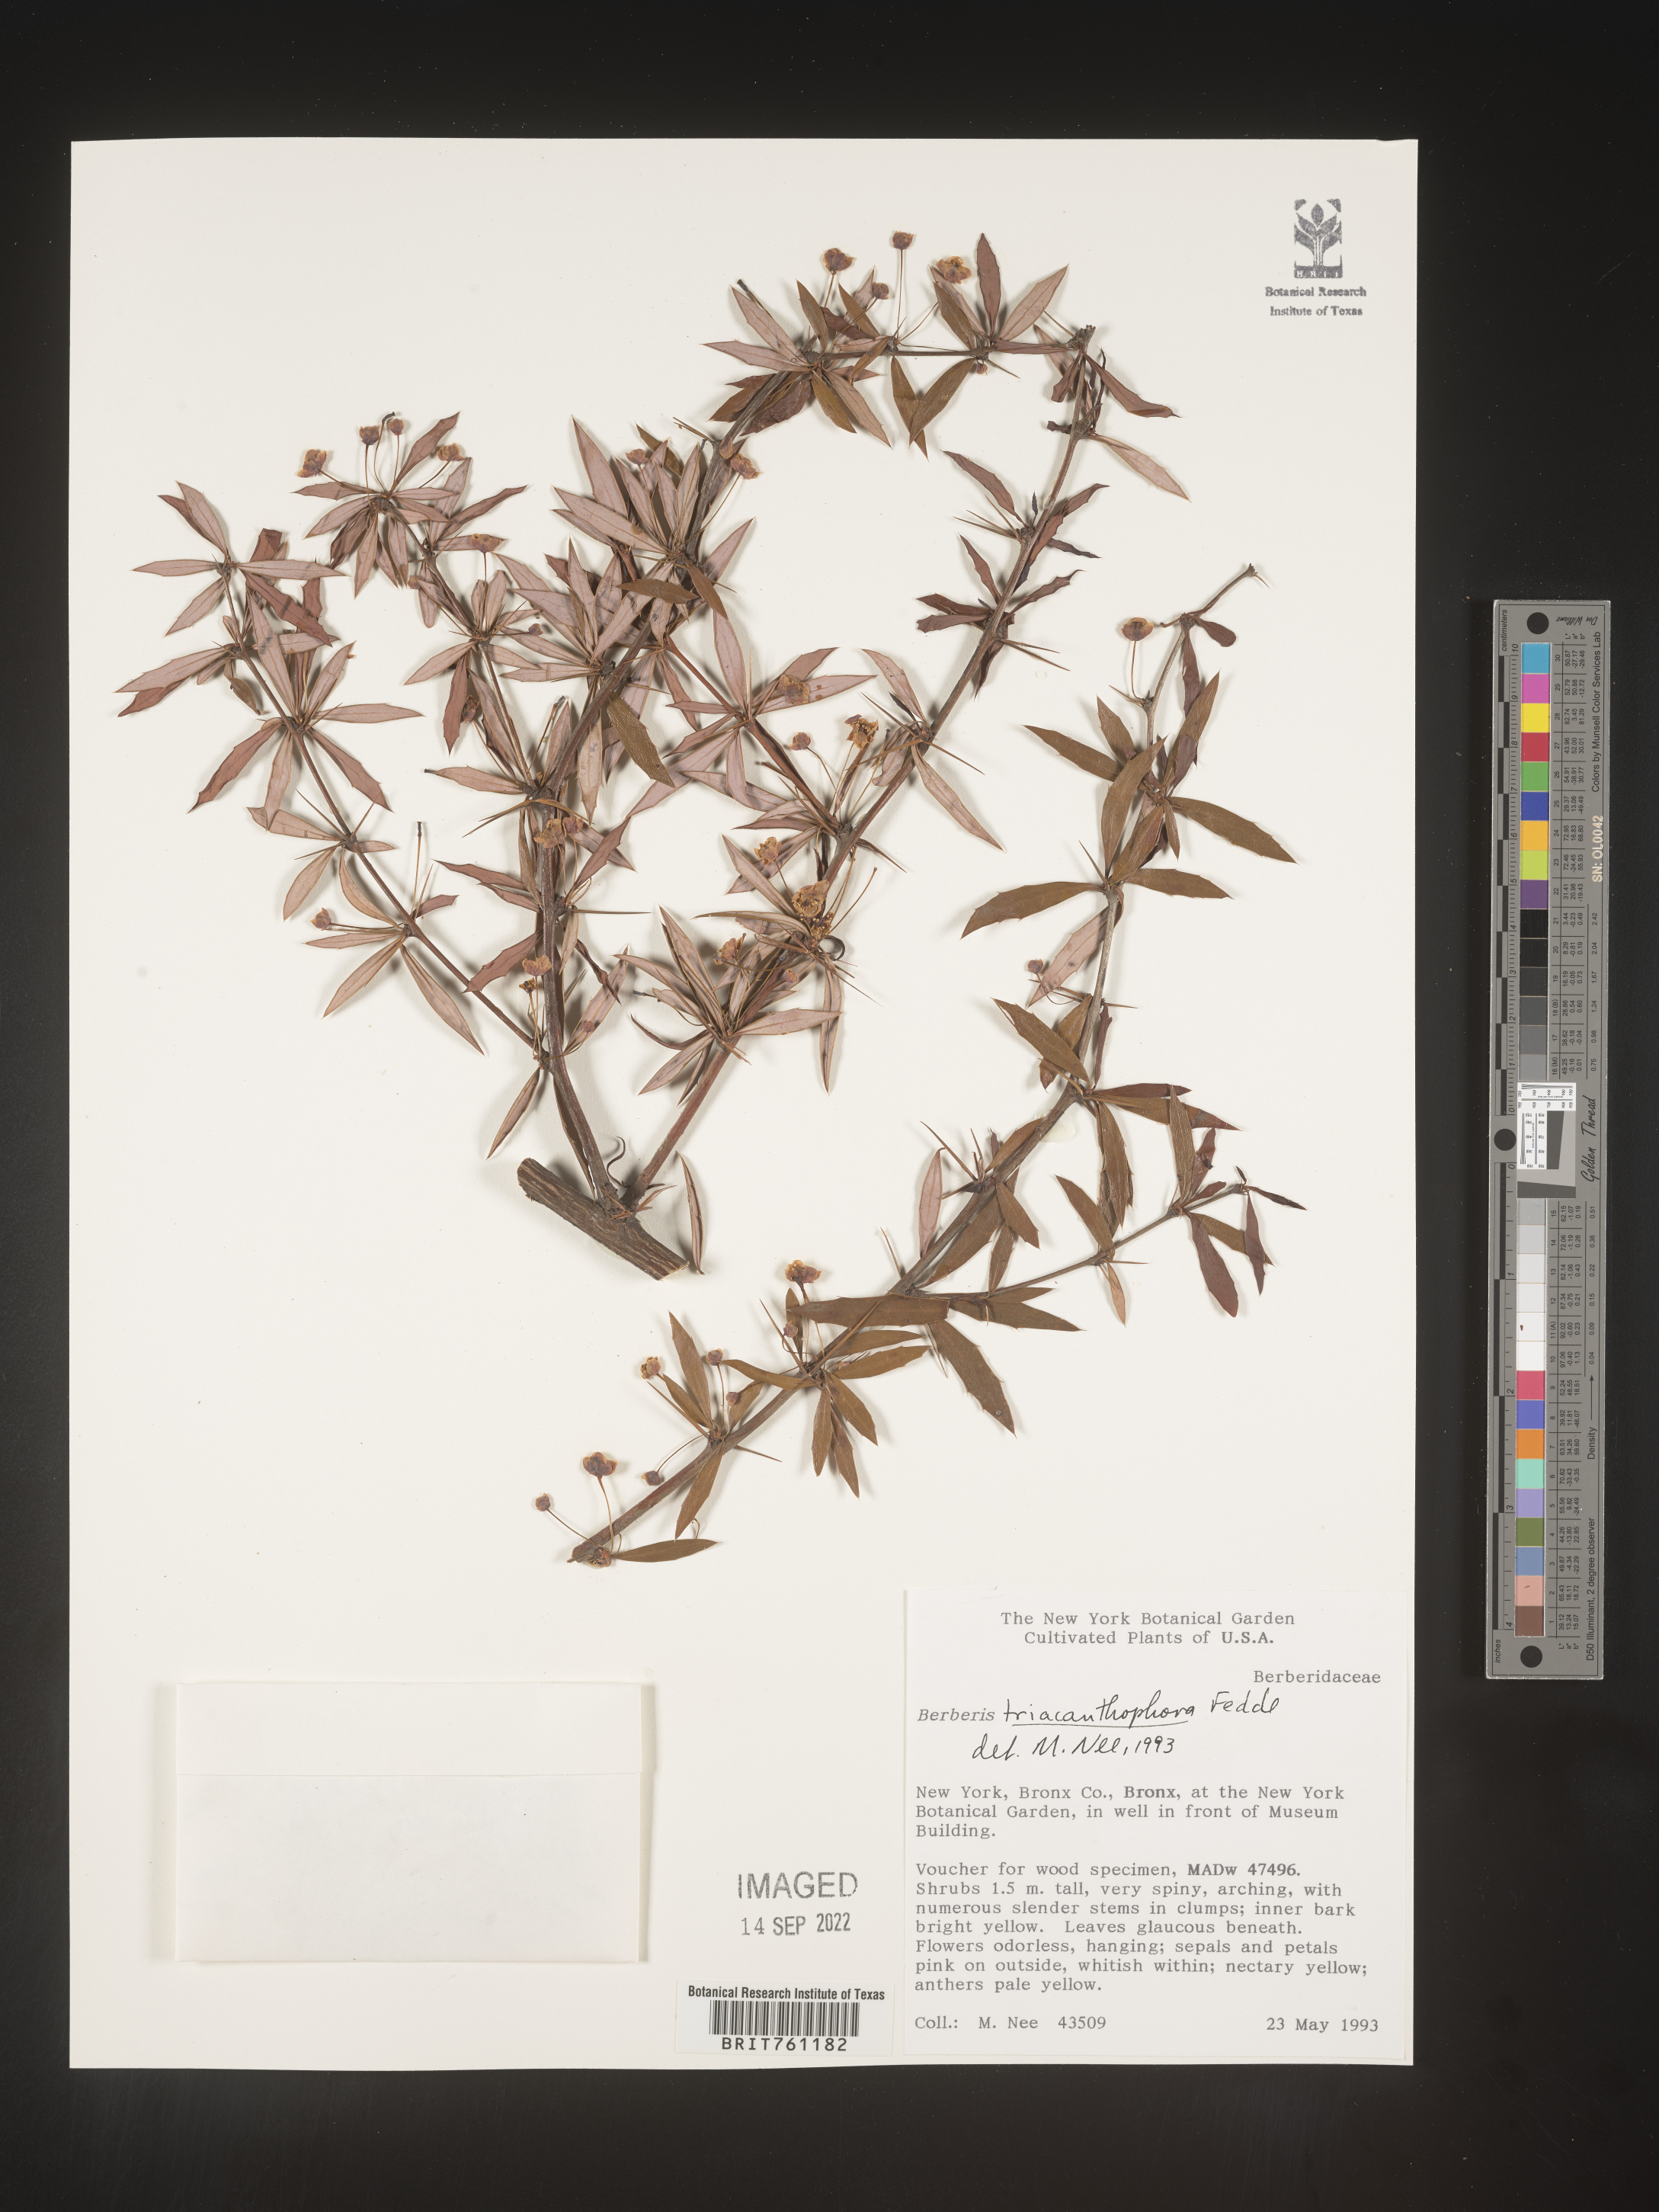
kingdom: Plantae
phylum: Tracheophyta
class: Magnoliopsida
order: Ranunculales
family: Berberidaceae
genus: Mahonia
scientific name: Mahonia
